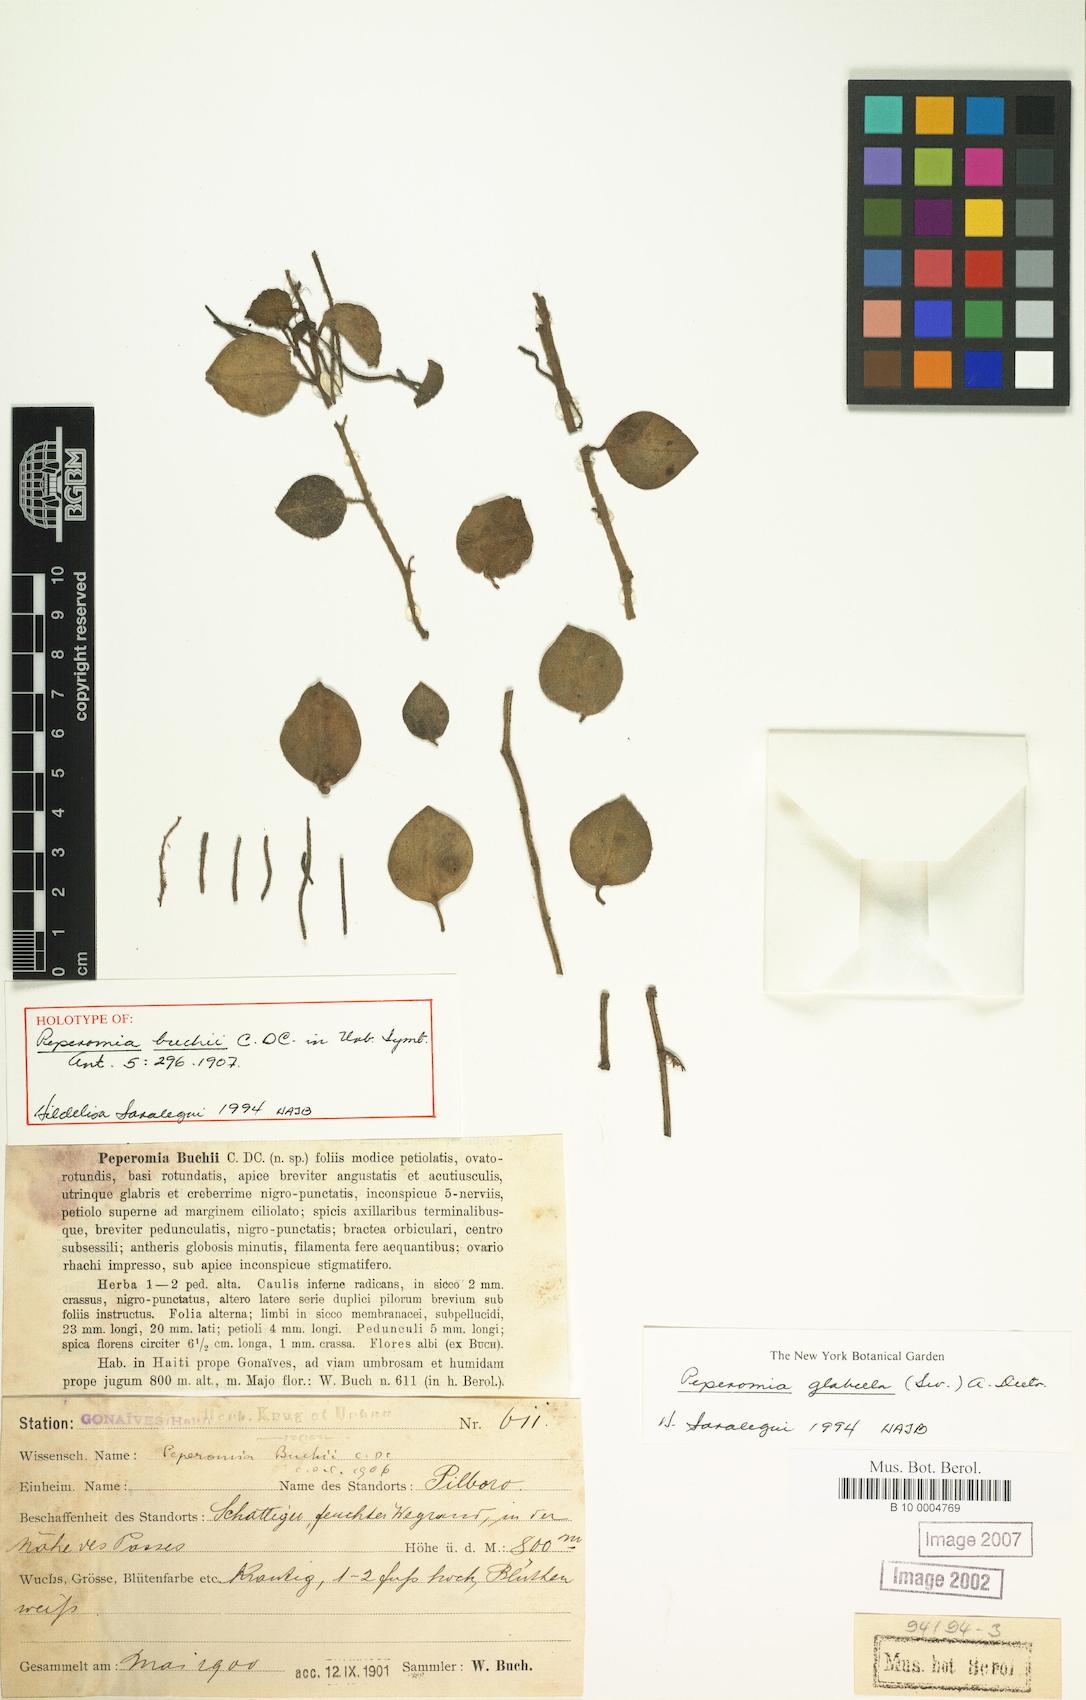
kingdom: Plantae
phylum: Tracheophyta
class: Magnoliopsida
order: Piperales
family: Piperaceae
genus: Peperomia
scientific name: Peperomia glabella
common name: Cypress peperomia
